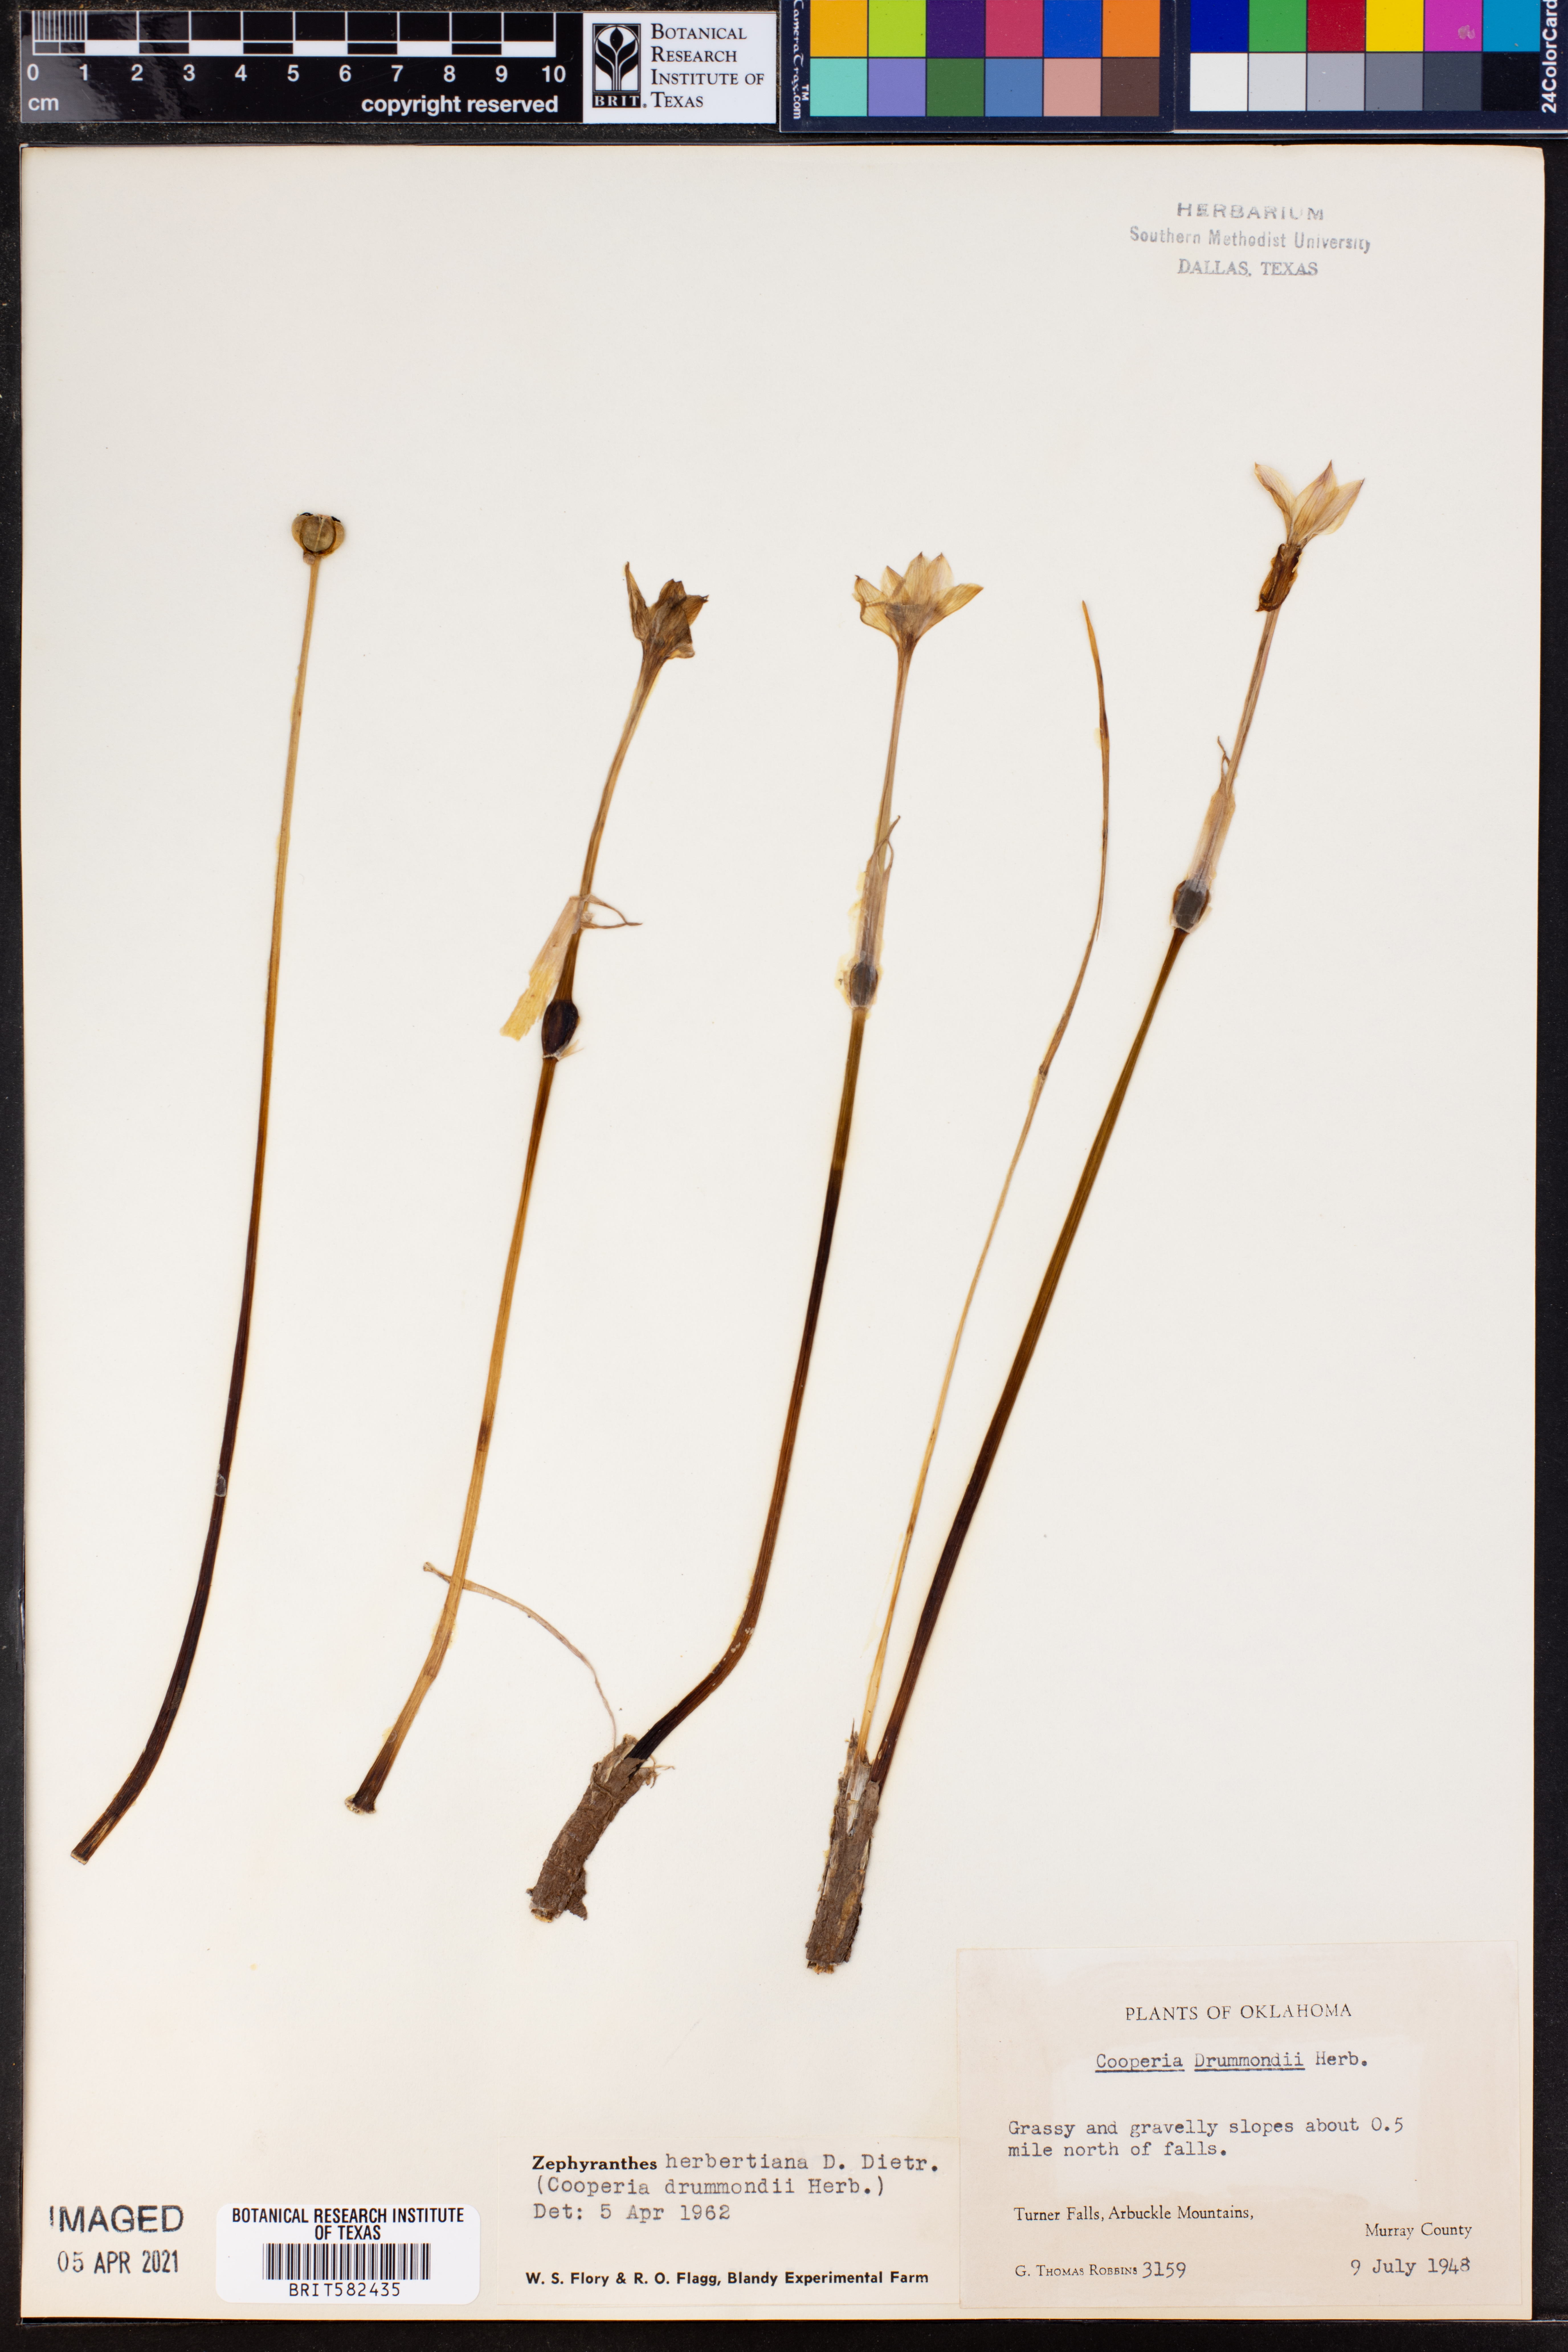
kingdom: Plantae
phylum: Tracheophyta
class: Liliopsida
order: Asparagales
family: Amaryllidaceae
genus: Zephyranthes
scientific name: Zephyranthes chlorosolen
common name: Evening rain-lily
